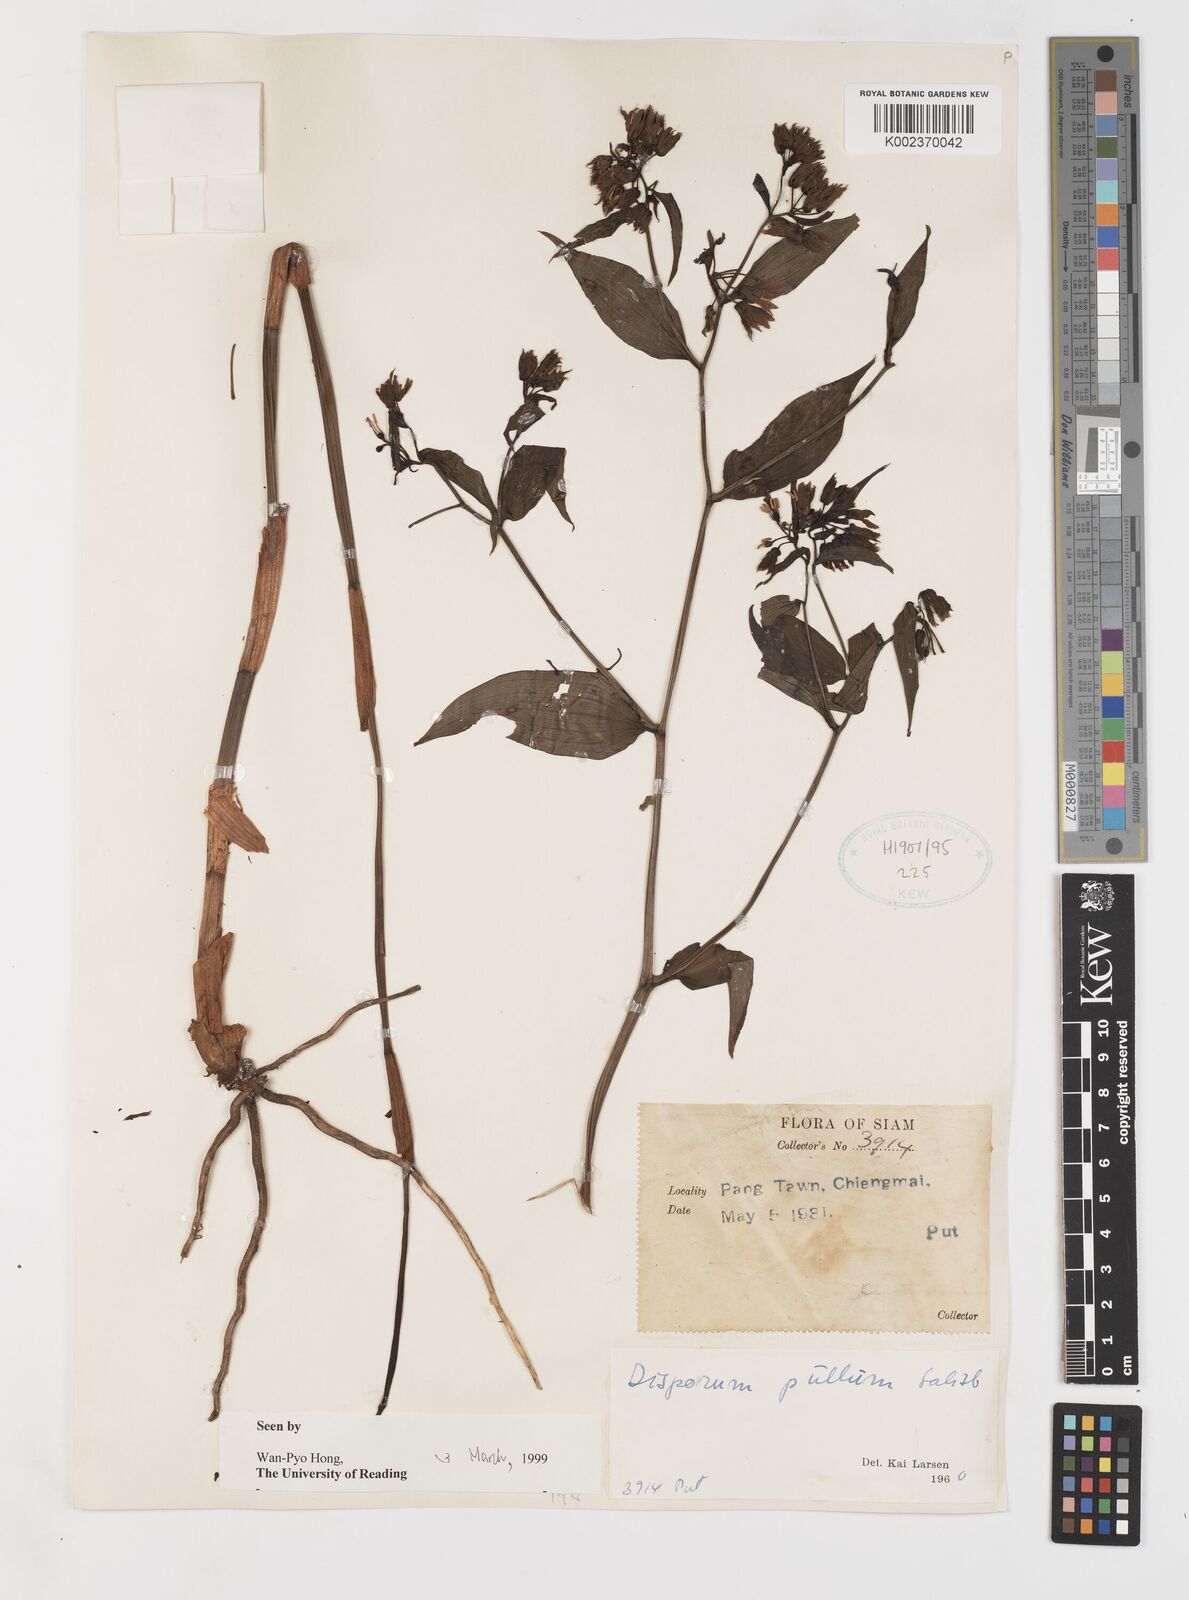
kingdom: Plantae
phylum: Tracheophyta
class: Liliopsida
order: Liliales
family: Colchicaceae
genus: Disporum
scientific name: Disporum cantoniense
